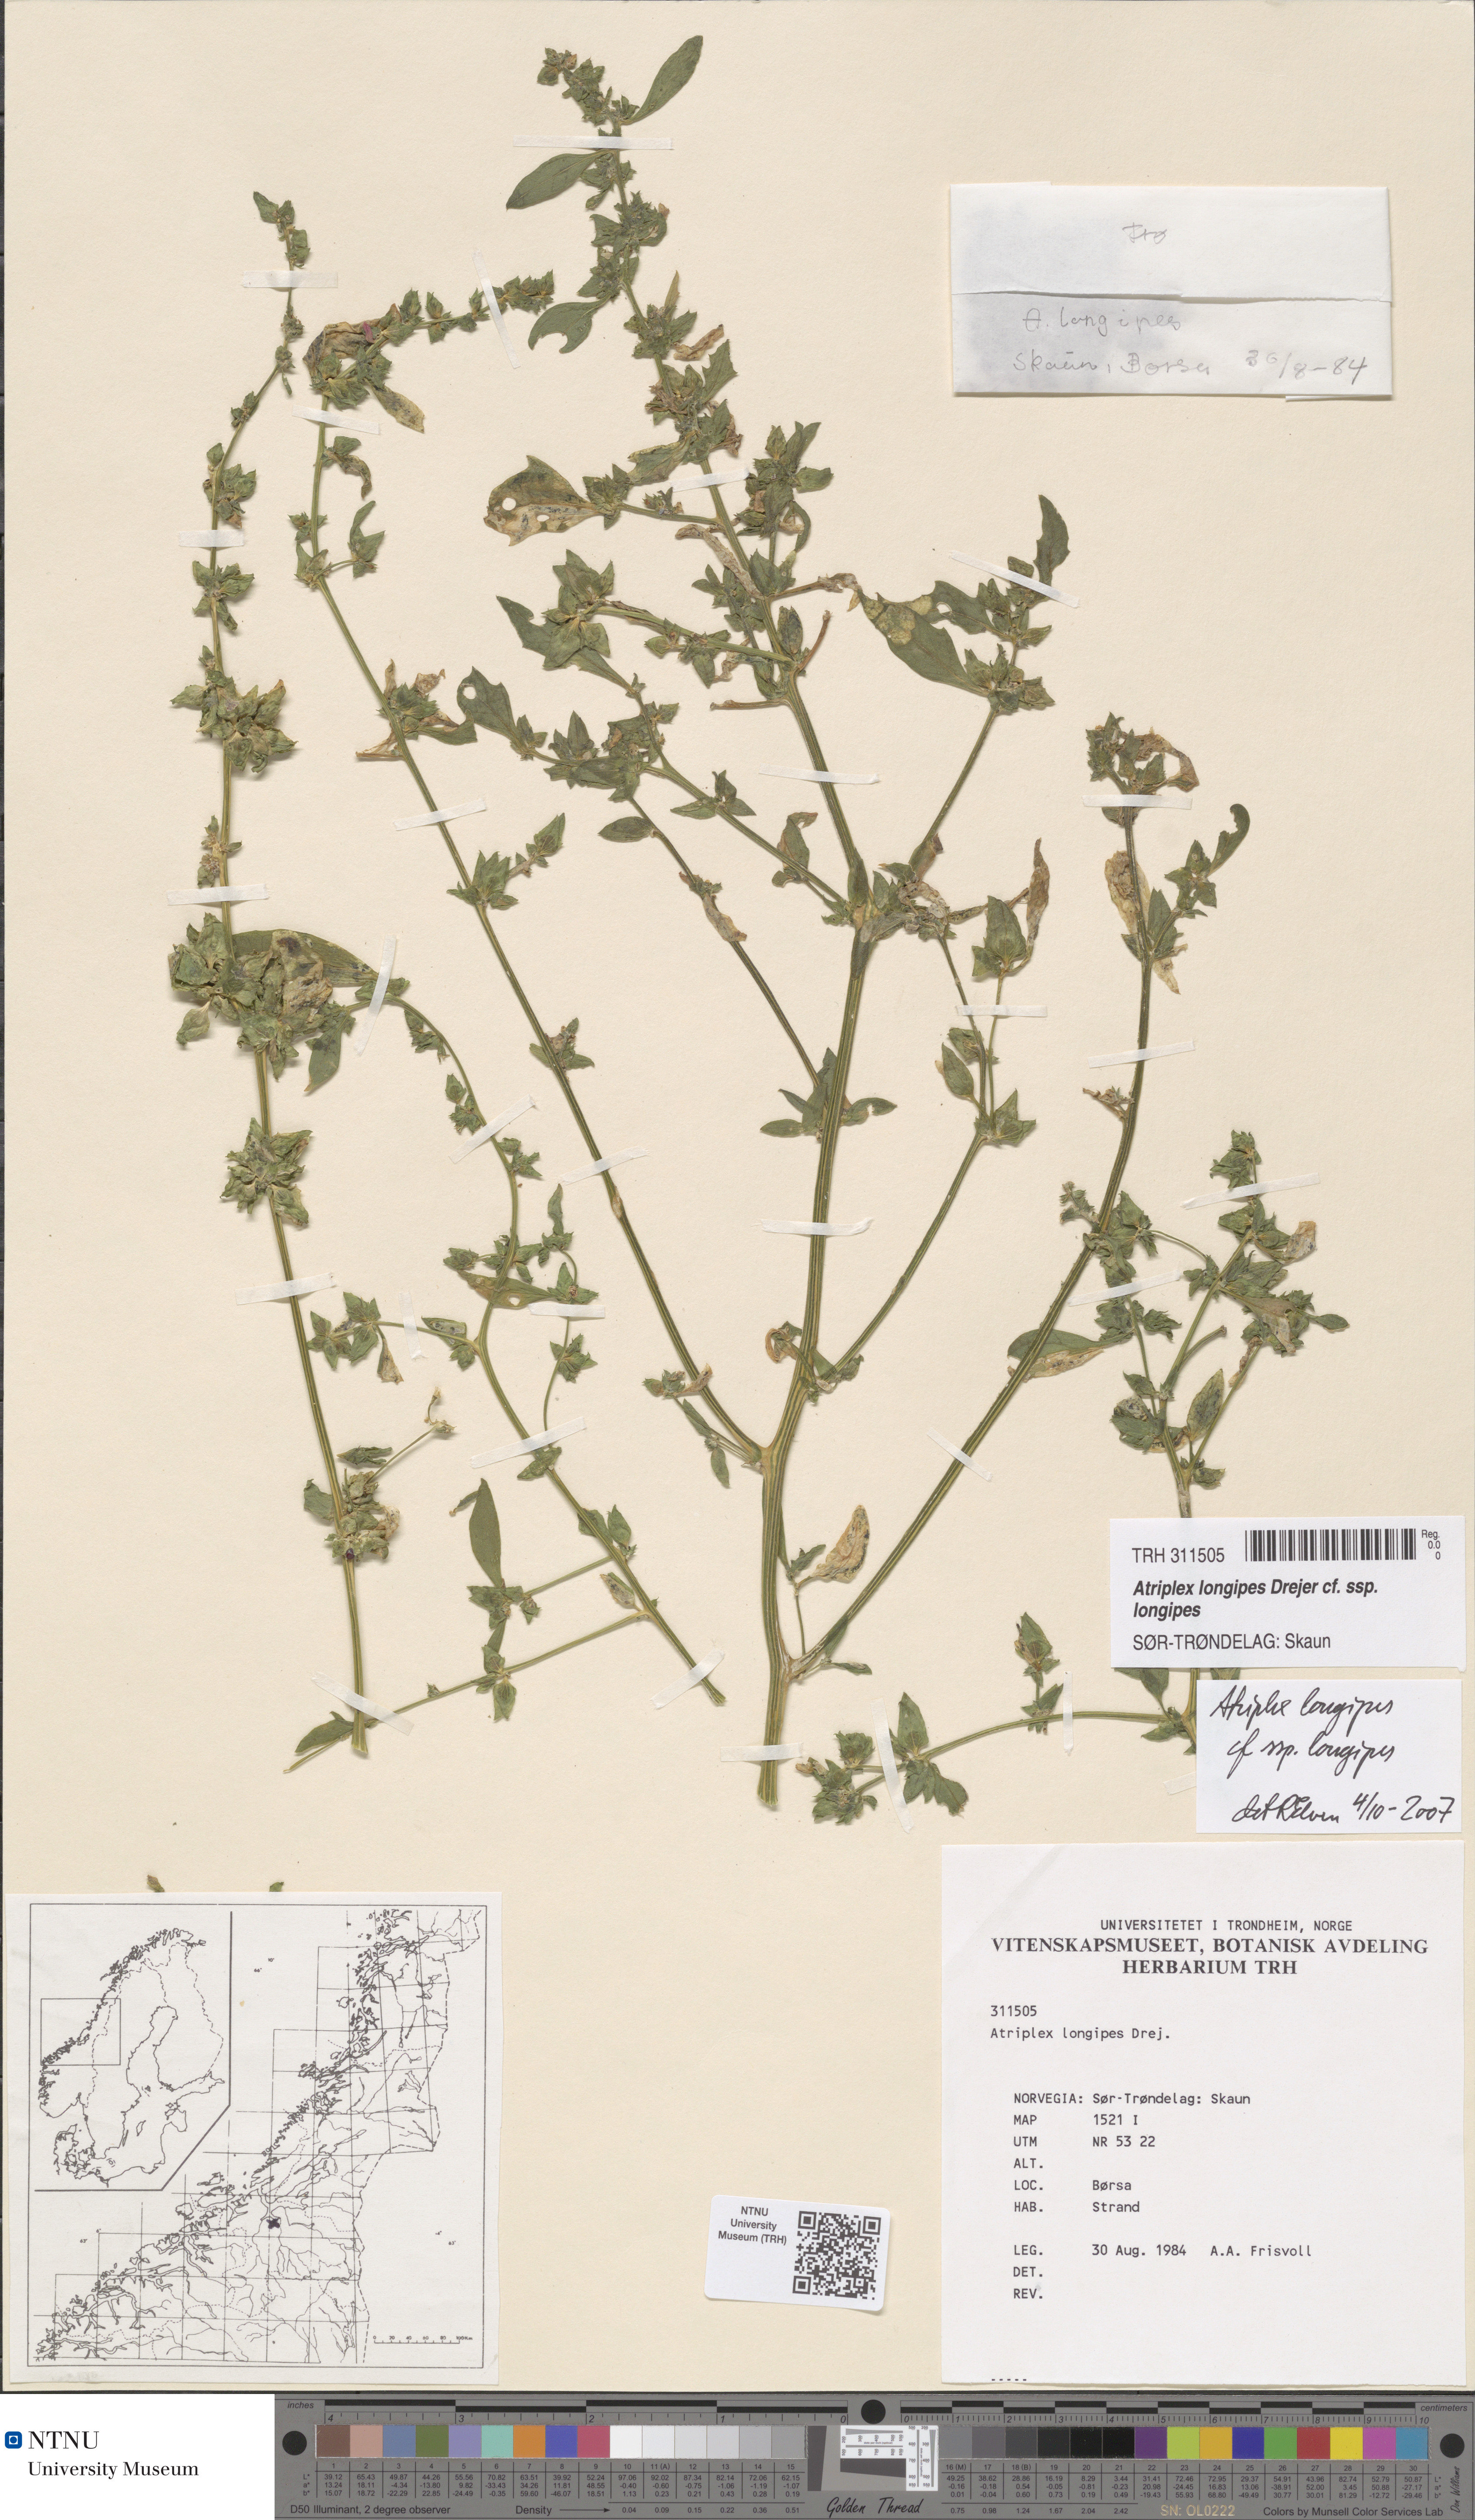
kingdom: Plantae
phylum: Tracheophyta
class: Magnoliopsida
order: Caryophyllales
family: Amaranthaceae
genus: Atriplex
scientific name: Atriplex longipes
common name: Long-stalked orache
